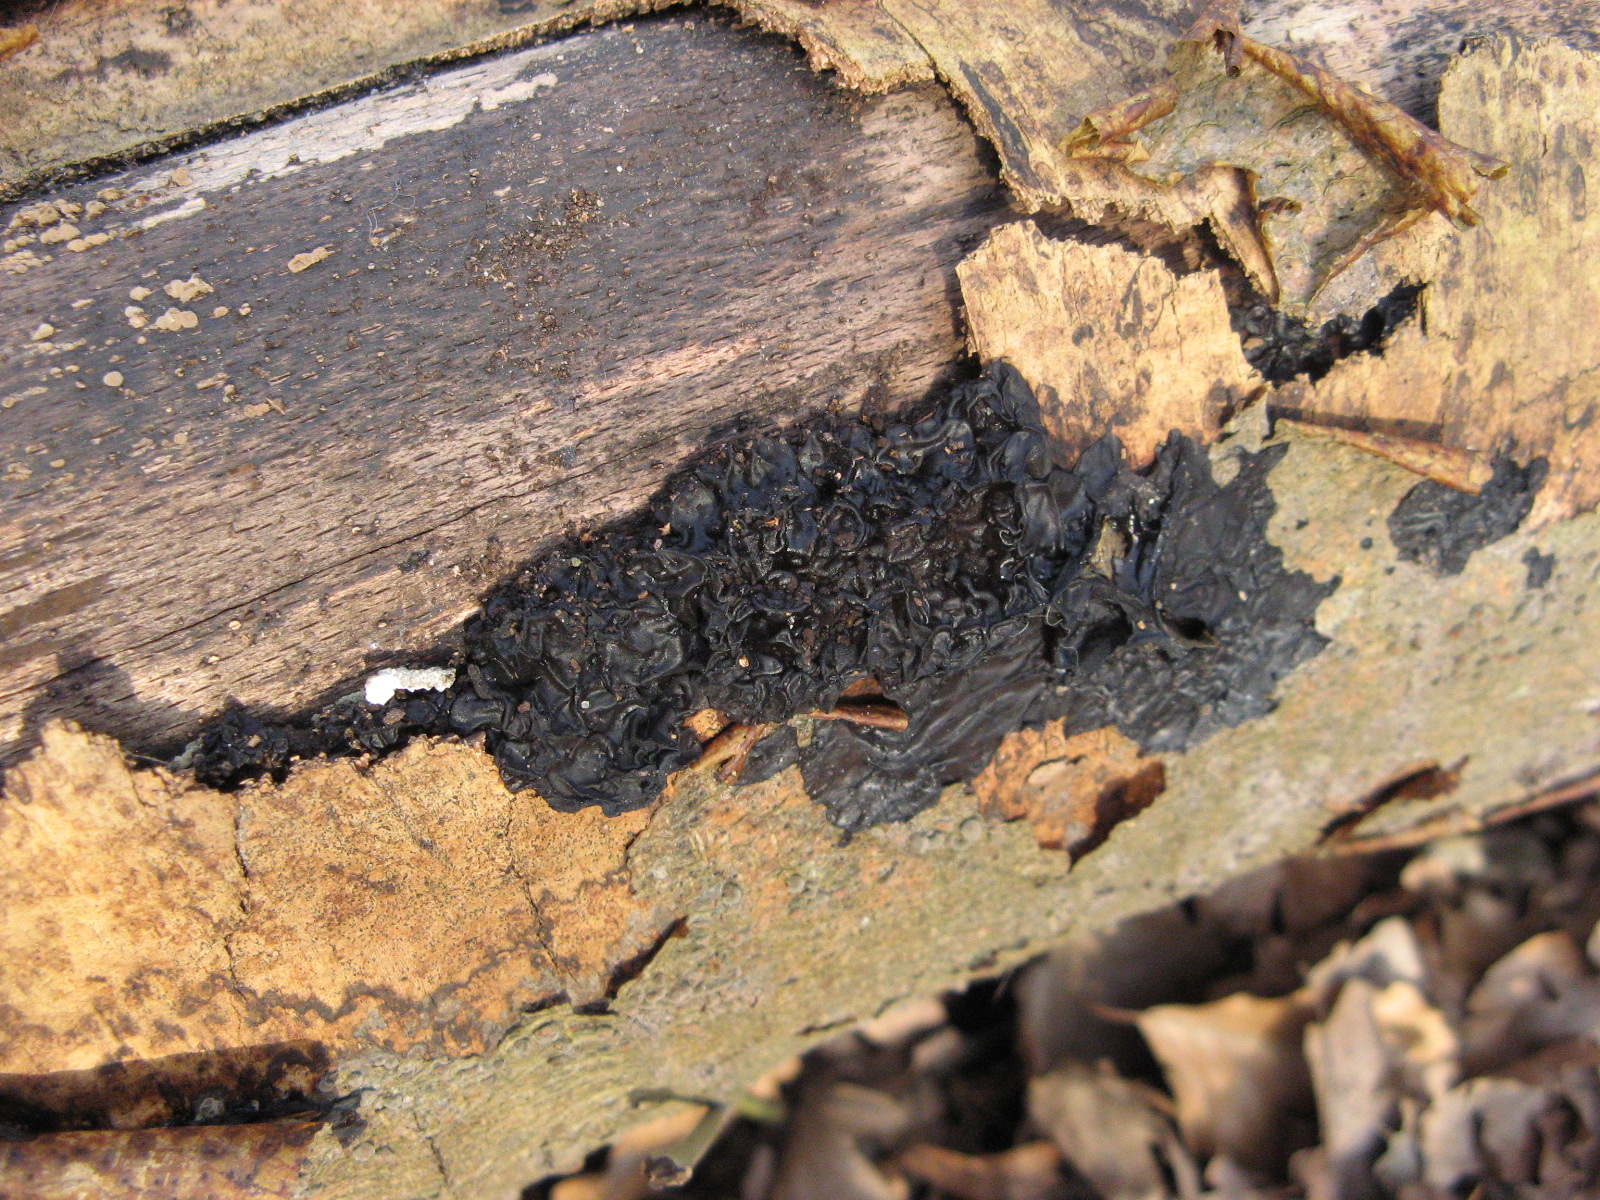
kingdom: Fungi
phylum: Basidiomycota
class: Agaricomycetes
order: Auriculariales
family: Auriculariaceae
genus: Exidia
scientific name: Exidia nigricans
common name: almindelig bævretop
